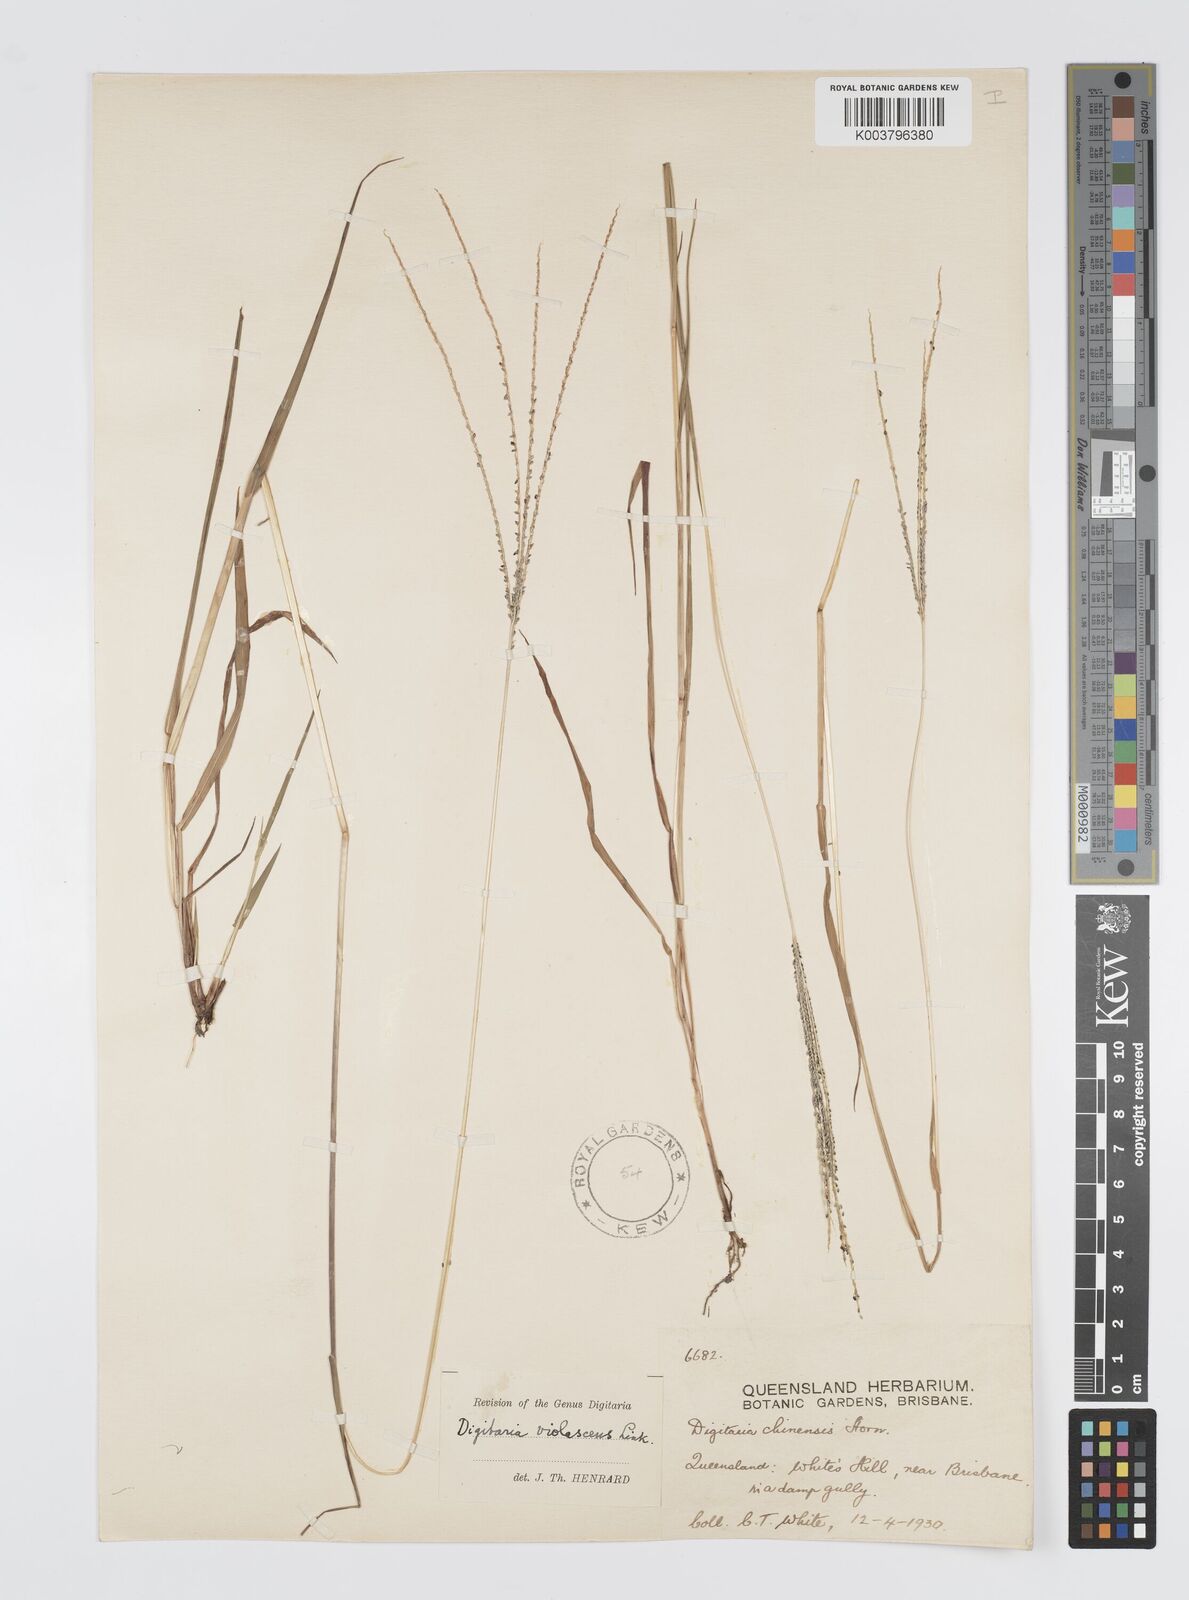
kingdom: Plantae
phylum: Tracheophyta
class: Liliopsida
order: Poales
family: Poaceae
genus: Digitaria
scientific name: Digitaria violascens
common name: Violet crabgrass
